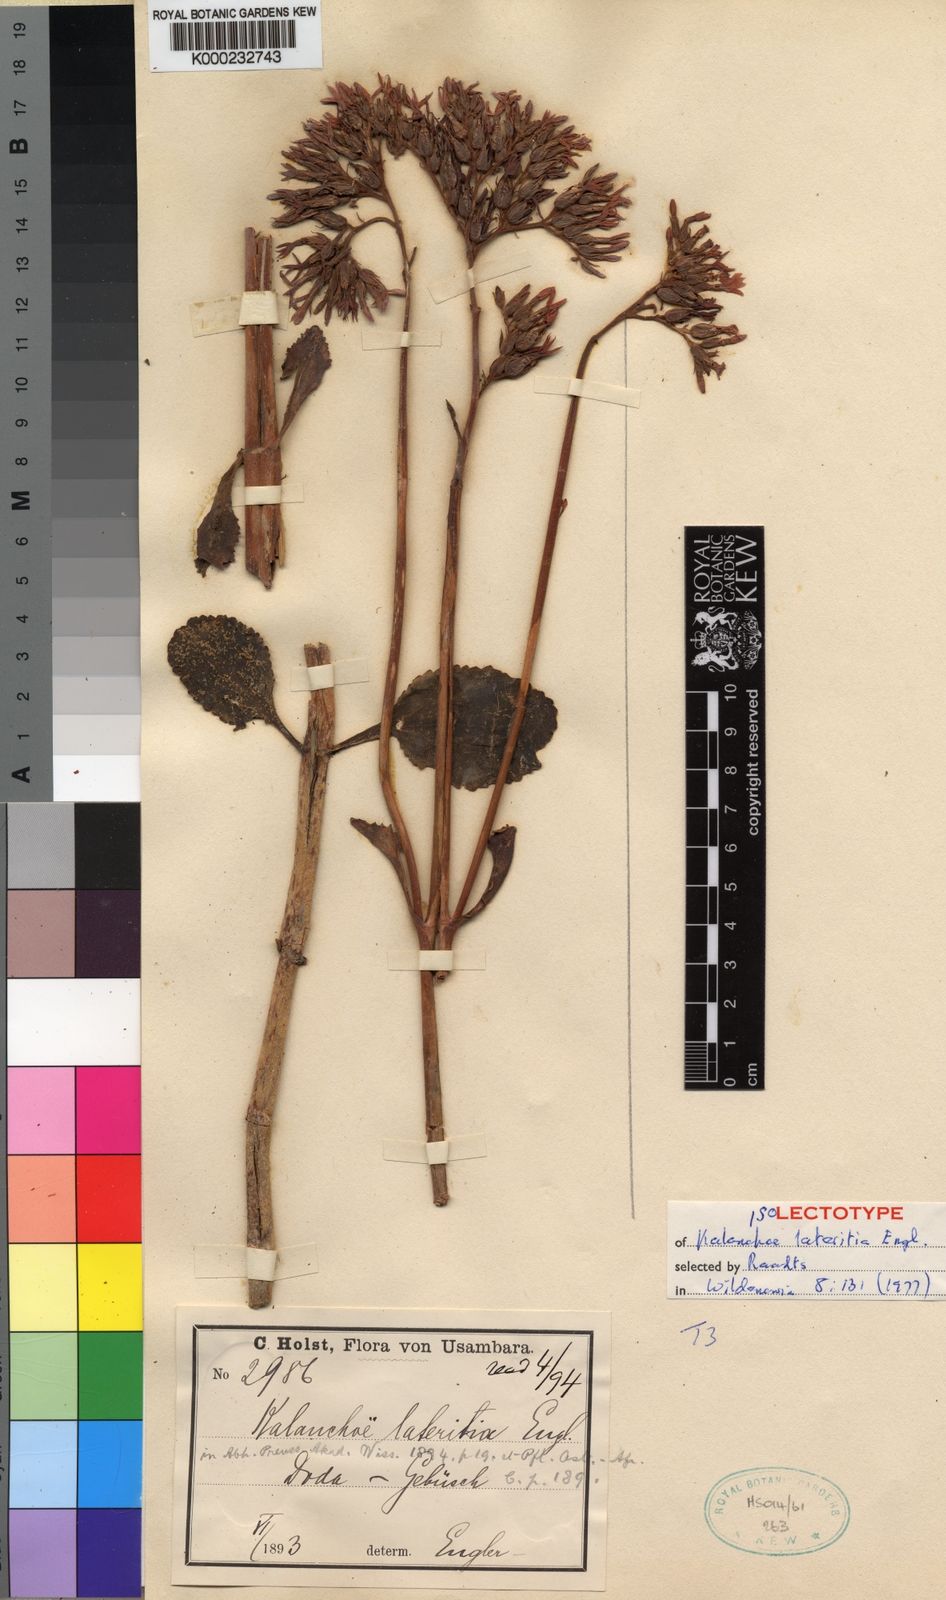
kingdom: Plantae
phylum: Tracheophyta
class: Magnoliopsida
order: Saxifragales
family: Crassulaceae
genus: Kalanchoe
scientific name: Kalanchoe lateritia
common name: Kalanchoe
